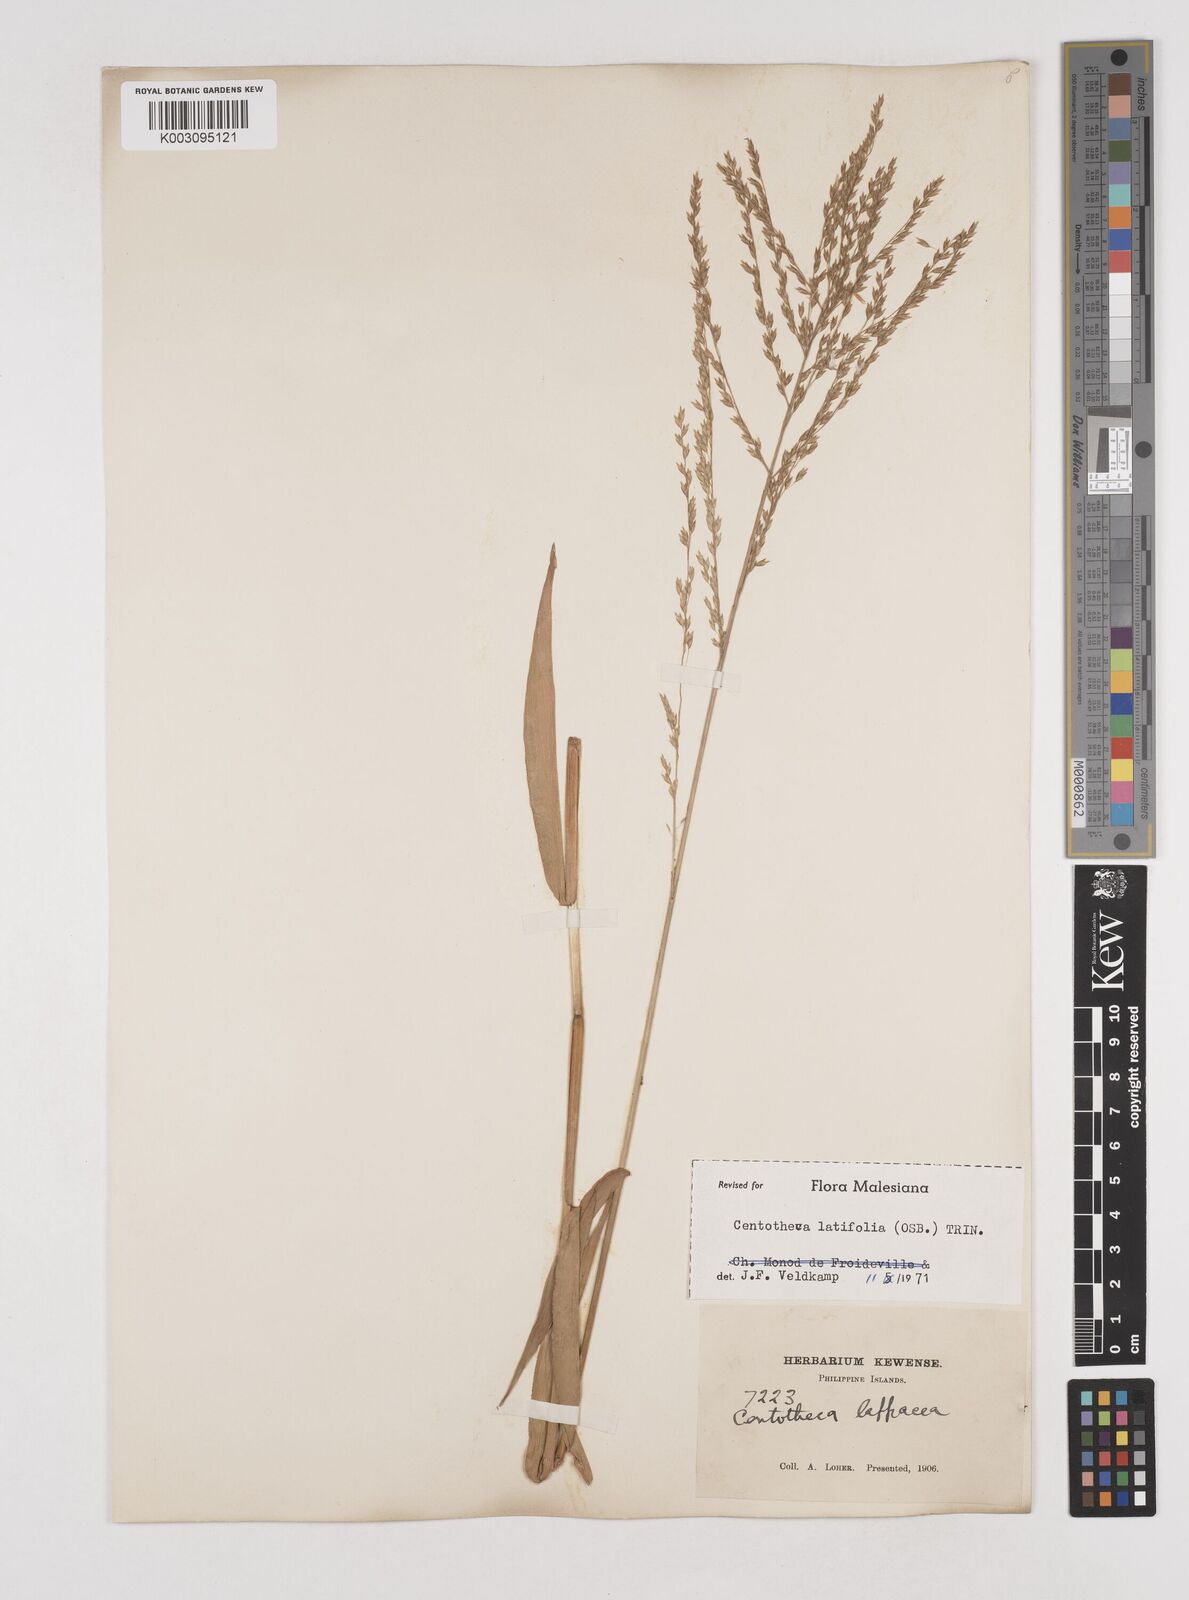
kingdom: Plantae
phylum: Tracheophyta
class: Liliopsida
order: Poales
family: Poaceae
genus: Centotheca
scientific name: Centotheca lappacea
